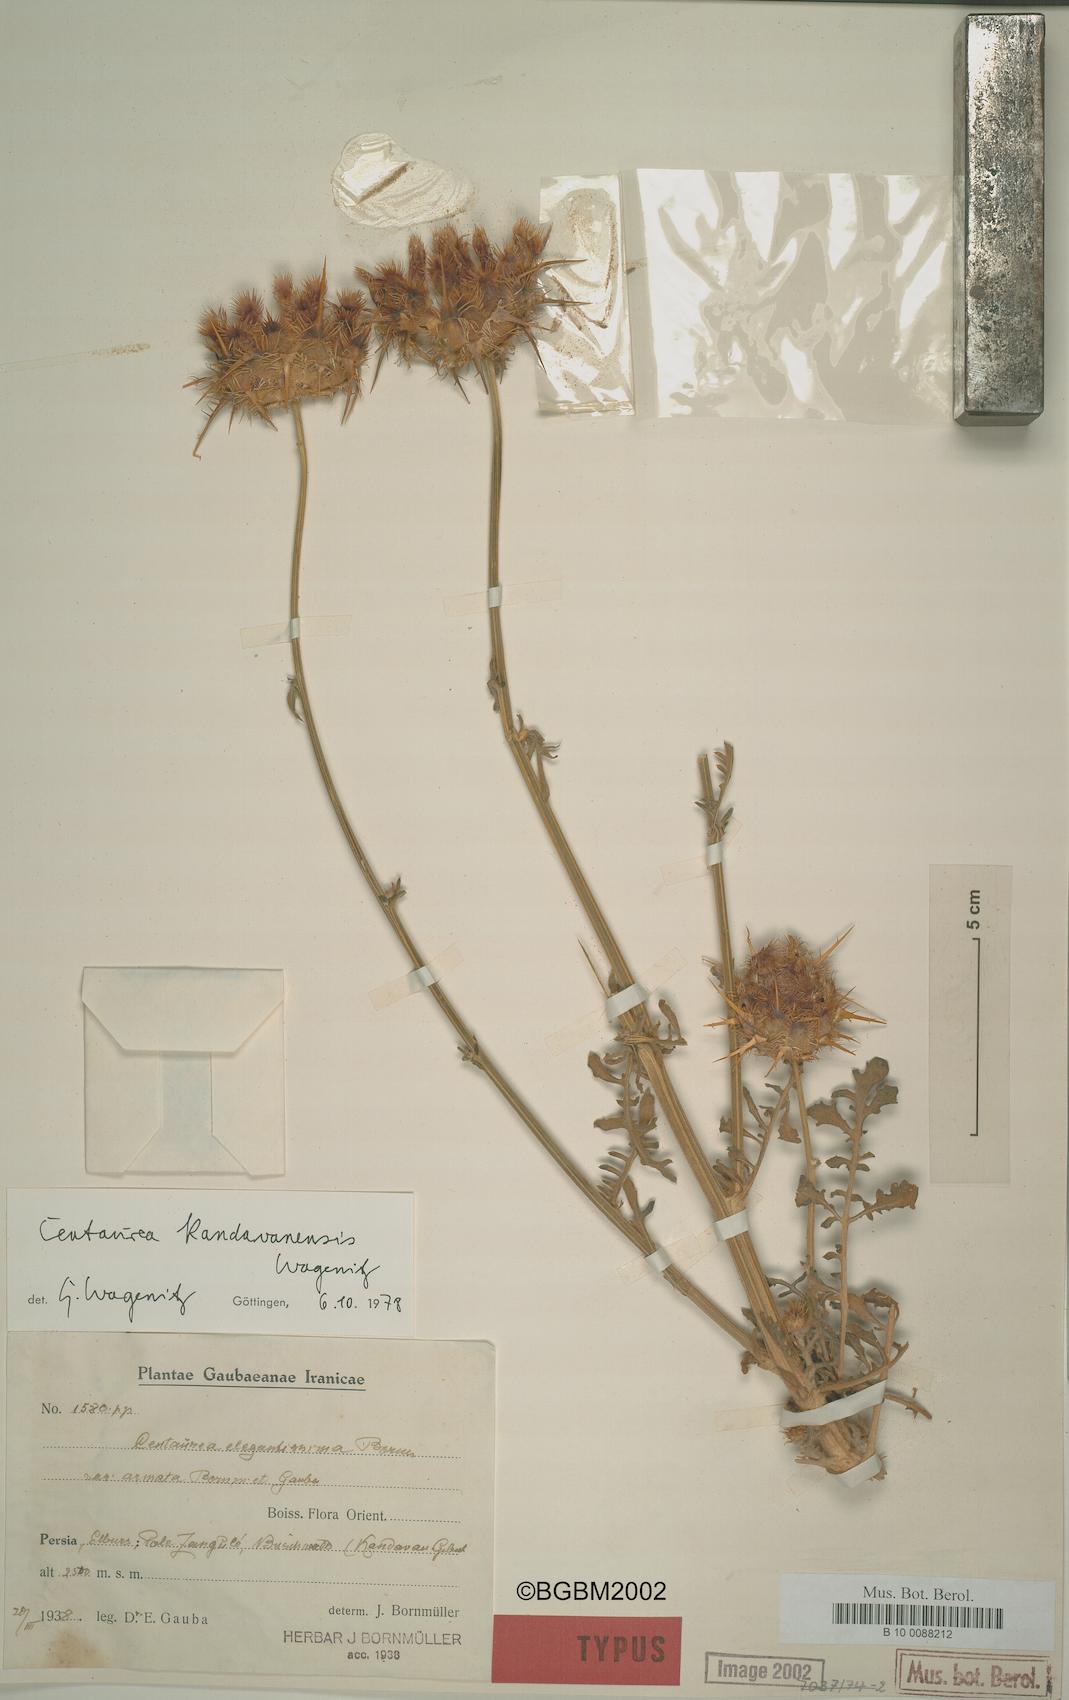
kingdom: Plantae
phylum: Tracheophyta
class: Magnoliopsida
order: Asterales
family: Asteraceae
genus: Centaurea
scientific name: Centaurea kandavanensis
